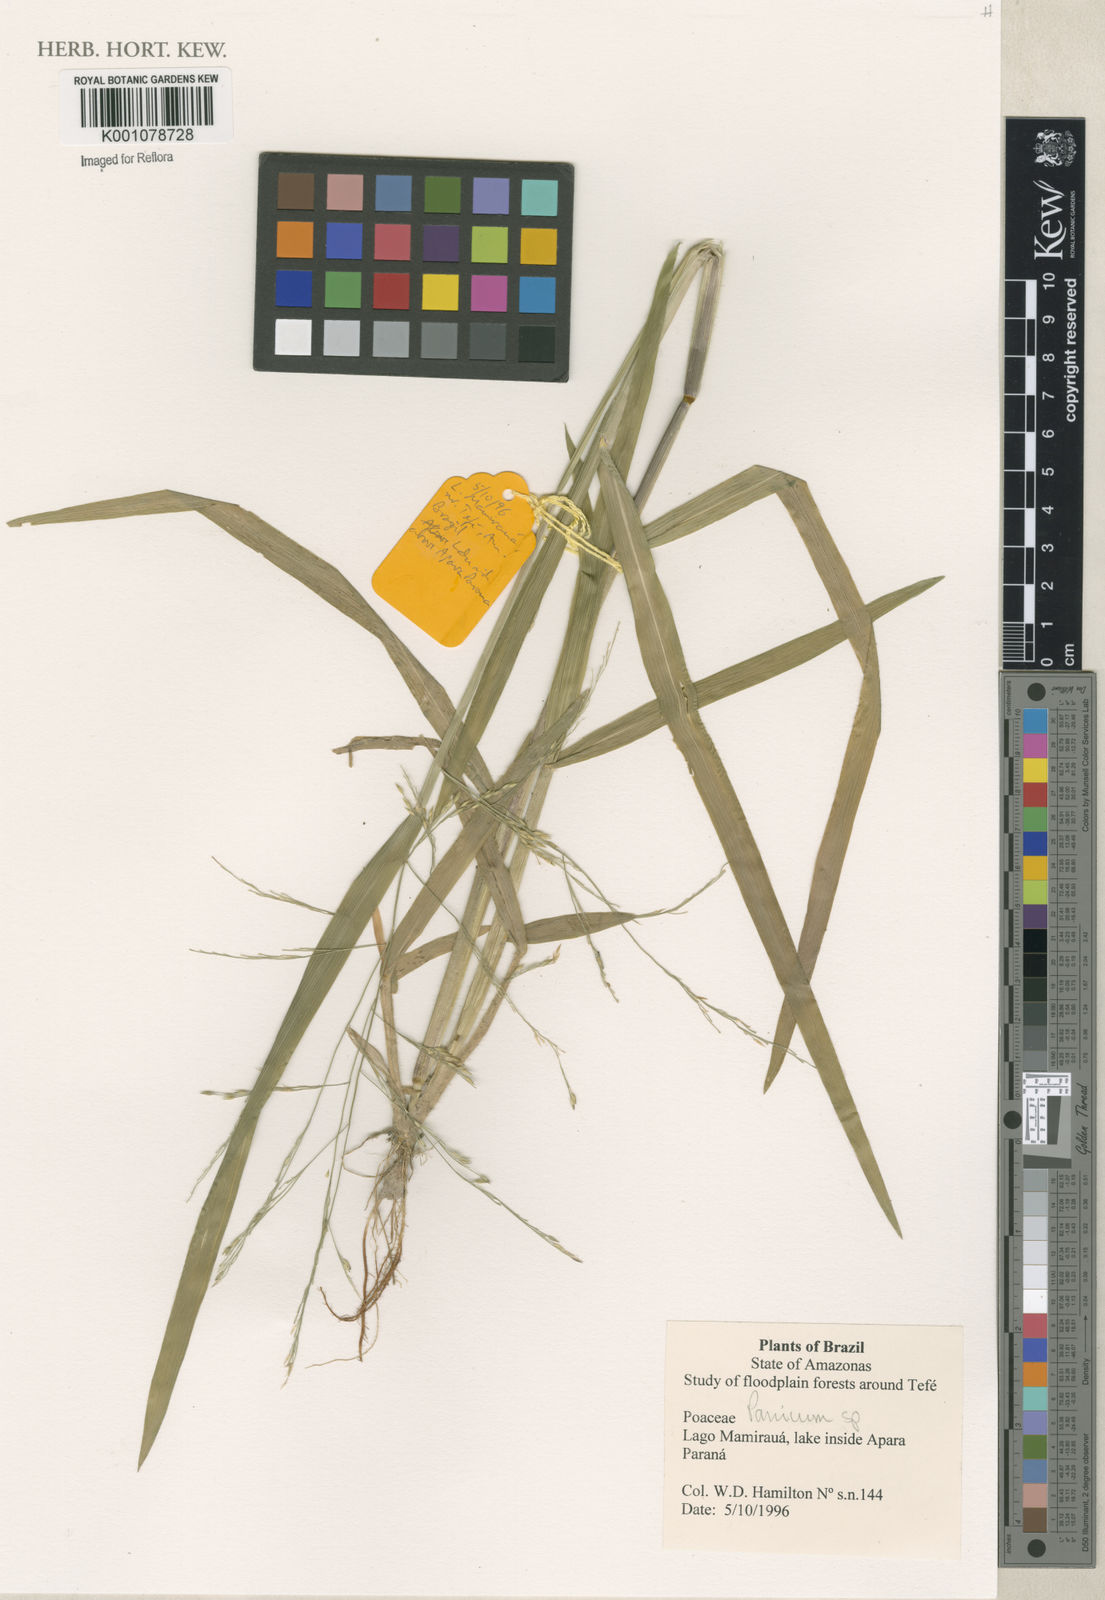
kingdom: Plantae
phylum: Tracheophyta
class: Liliopsida
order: Poales
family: Poaceae
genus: Panicum
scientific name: Panicum
